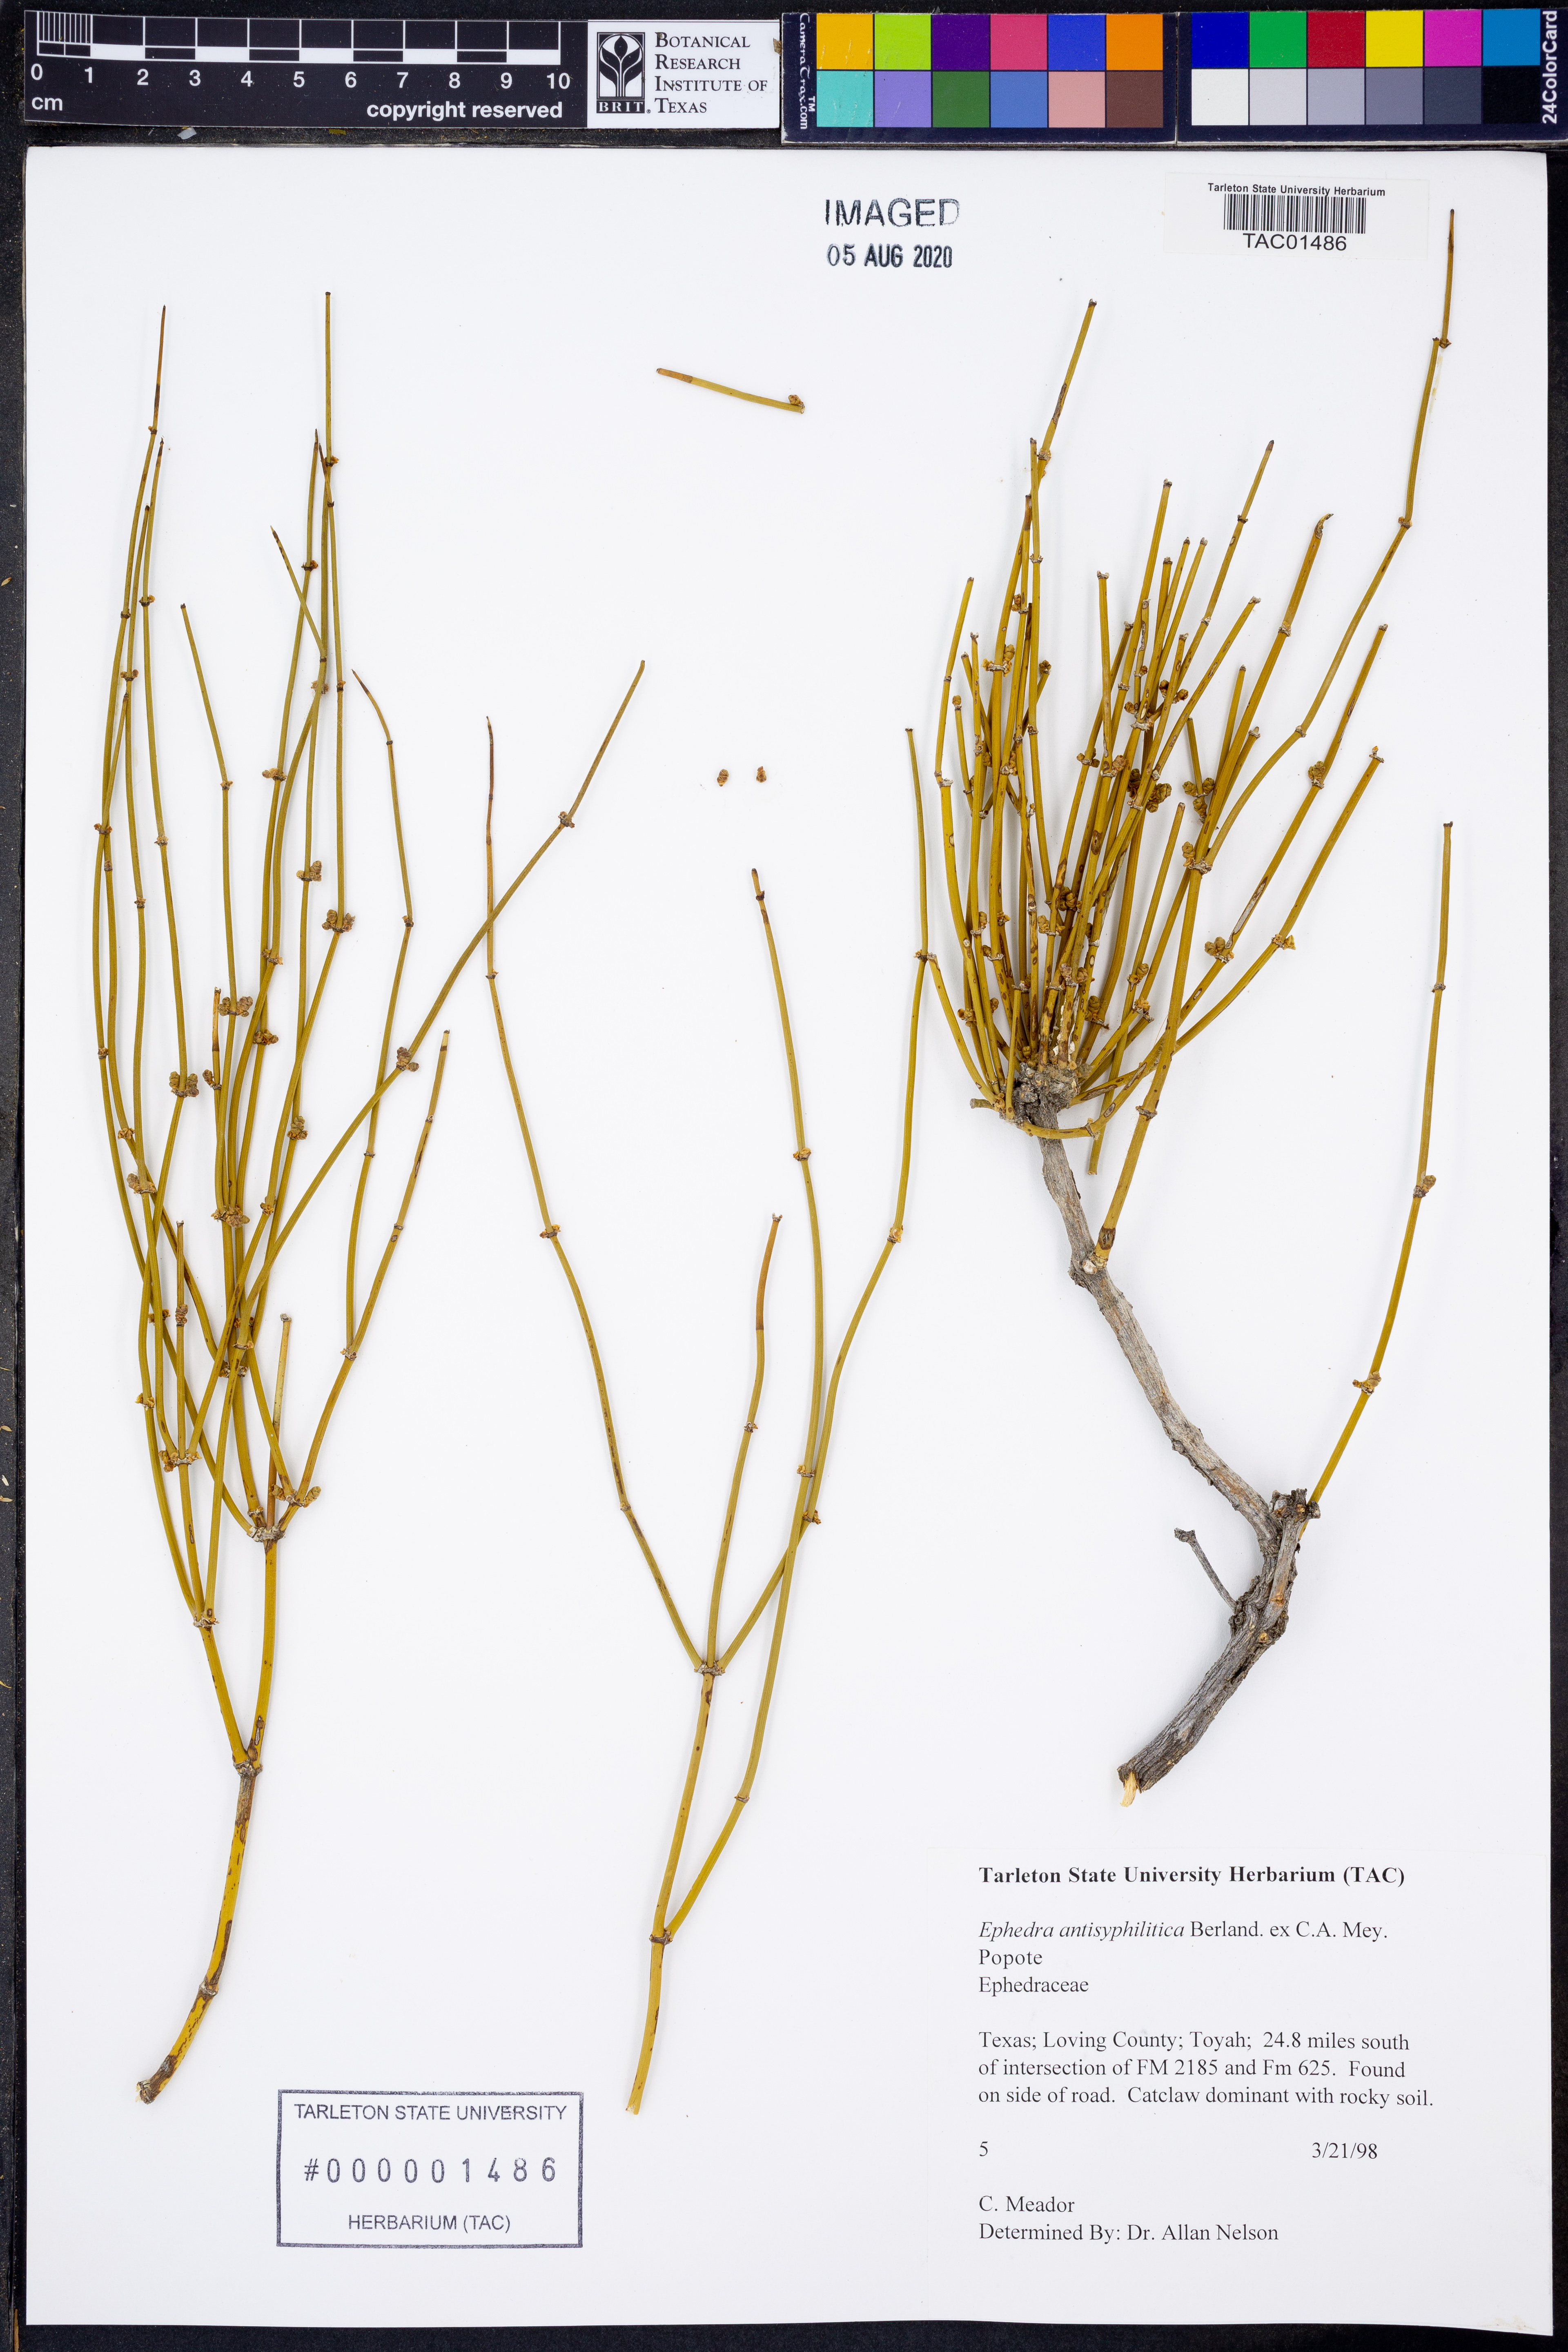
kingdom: Plantae
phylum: Tracheophyta
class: Gnetopsida
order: Ephedrales
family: Ephedraceae
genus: Ephedra
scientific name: Ephedra antisyphilitica
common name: Clipweed
